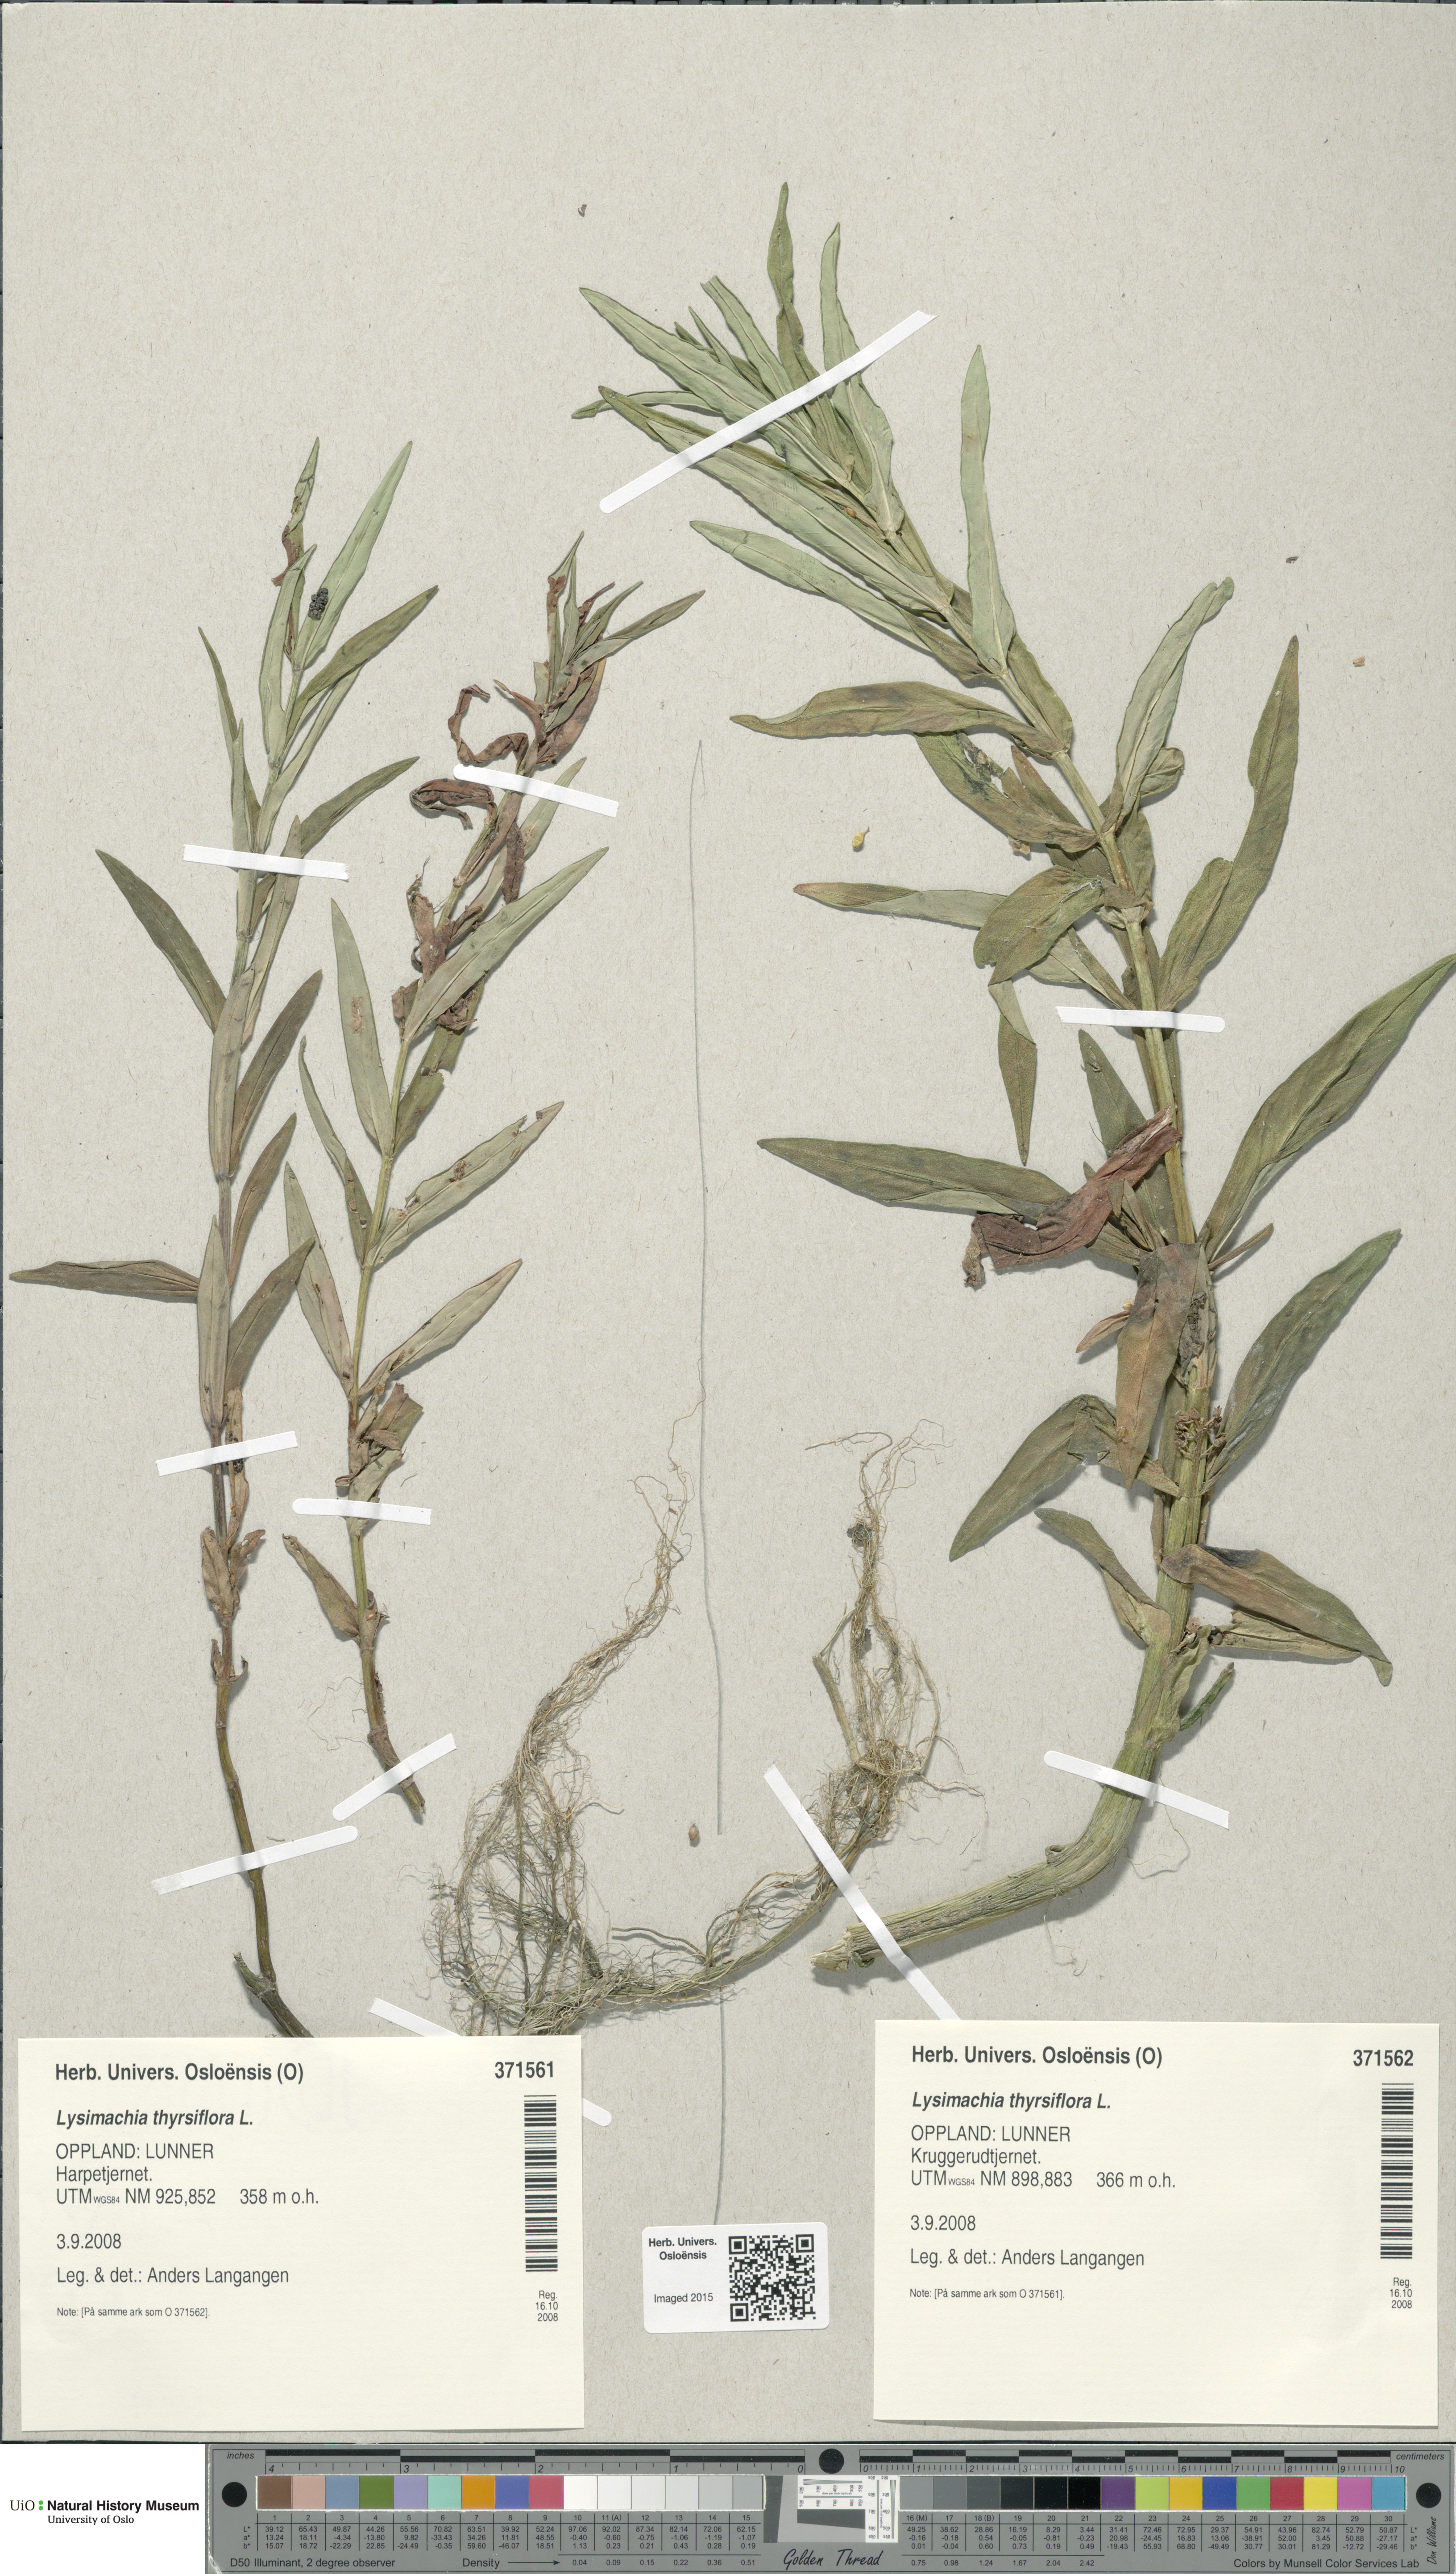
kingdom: Plantae
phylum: Tracheophyta
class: Magnoliopsida
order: Ericales
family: Primulaceae
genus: Lysimachia
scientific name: Lysimachia thyrsiflora
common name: Tufted loosestrife
